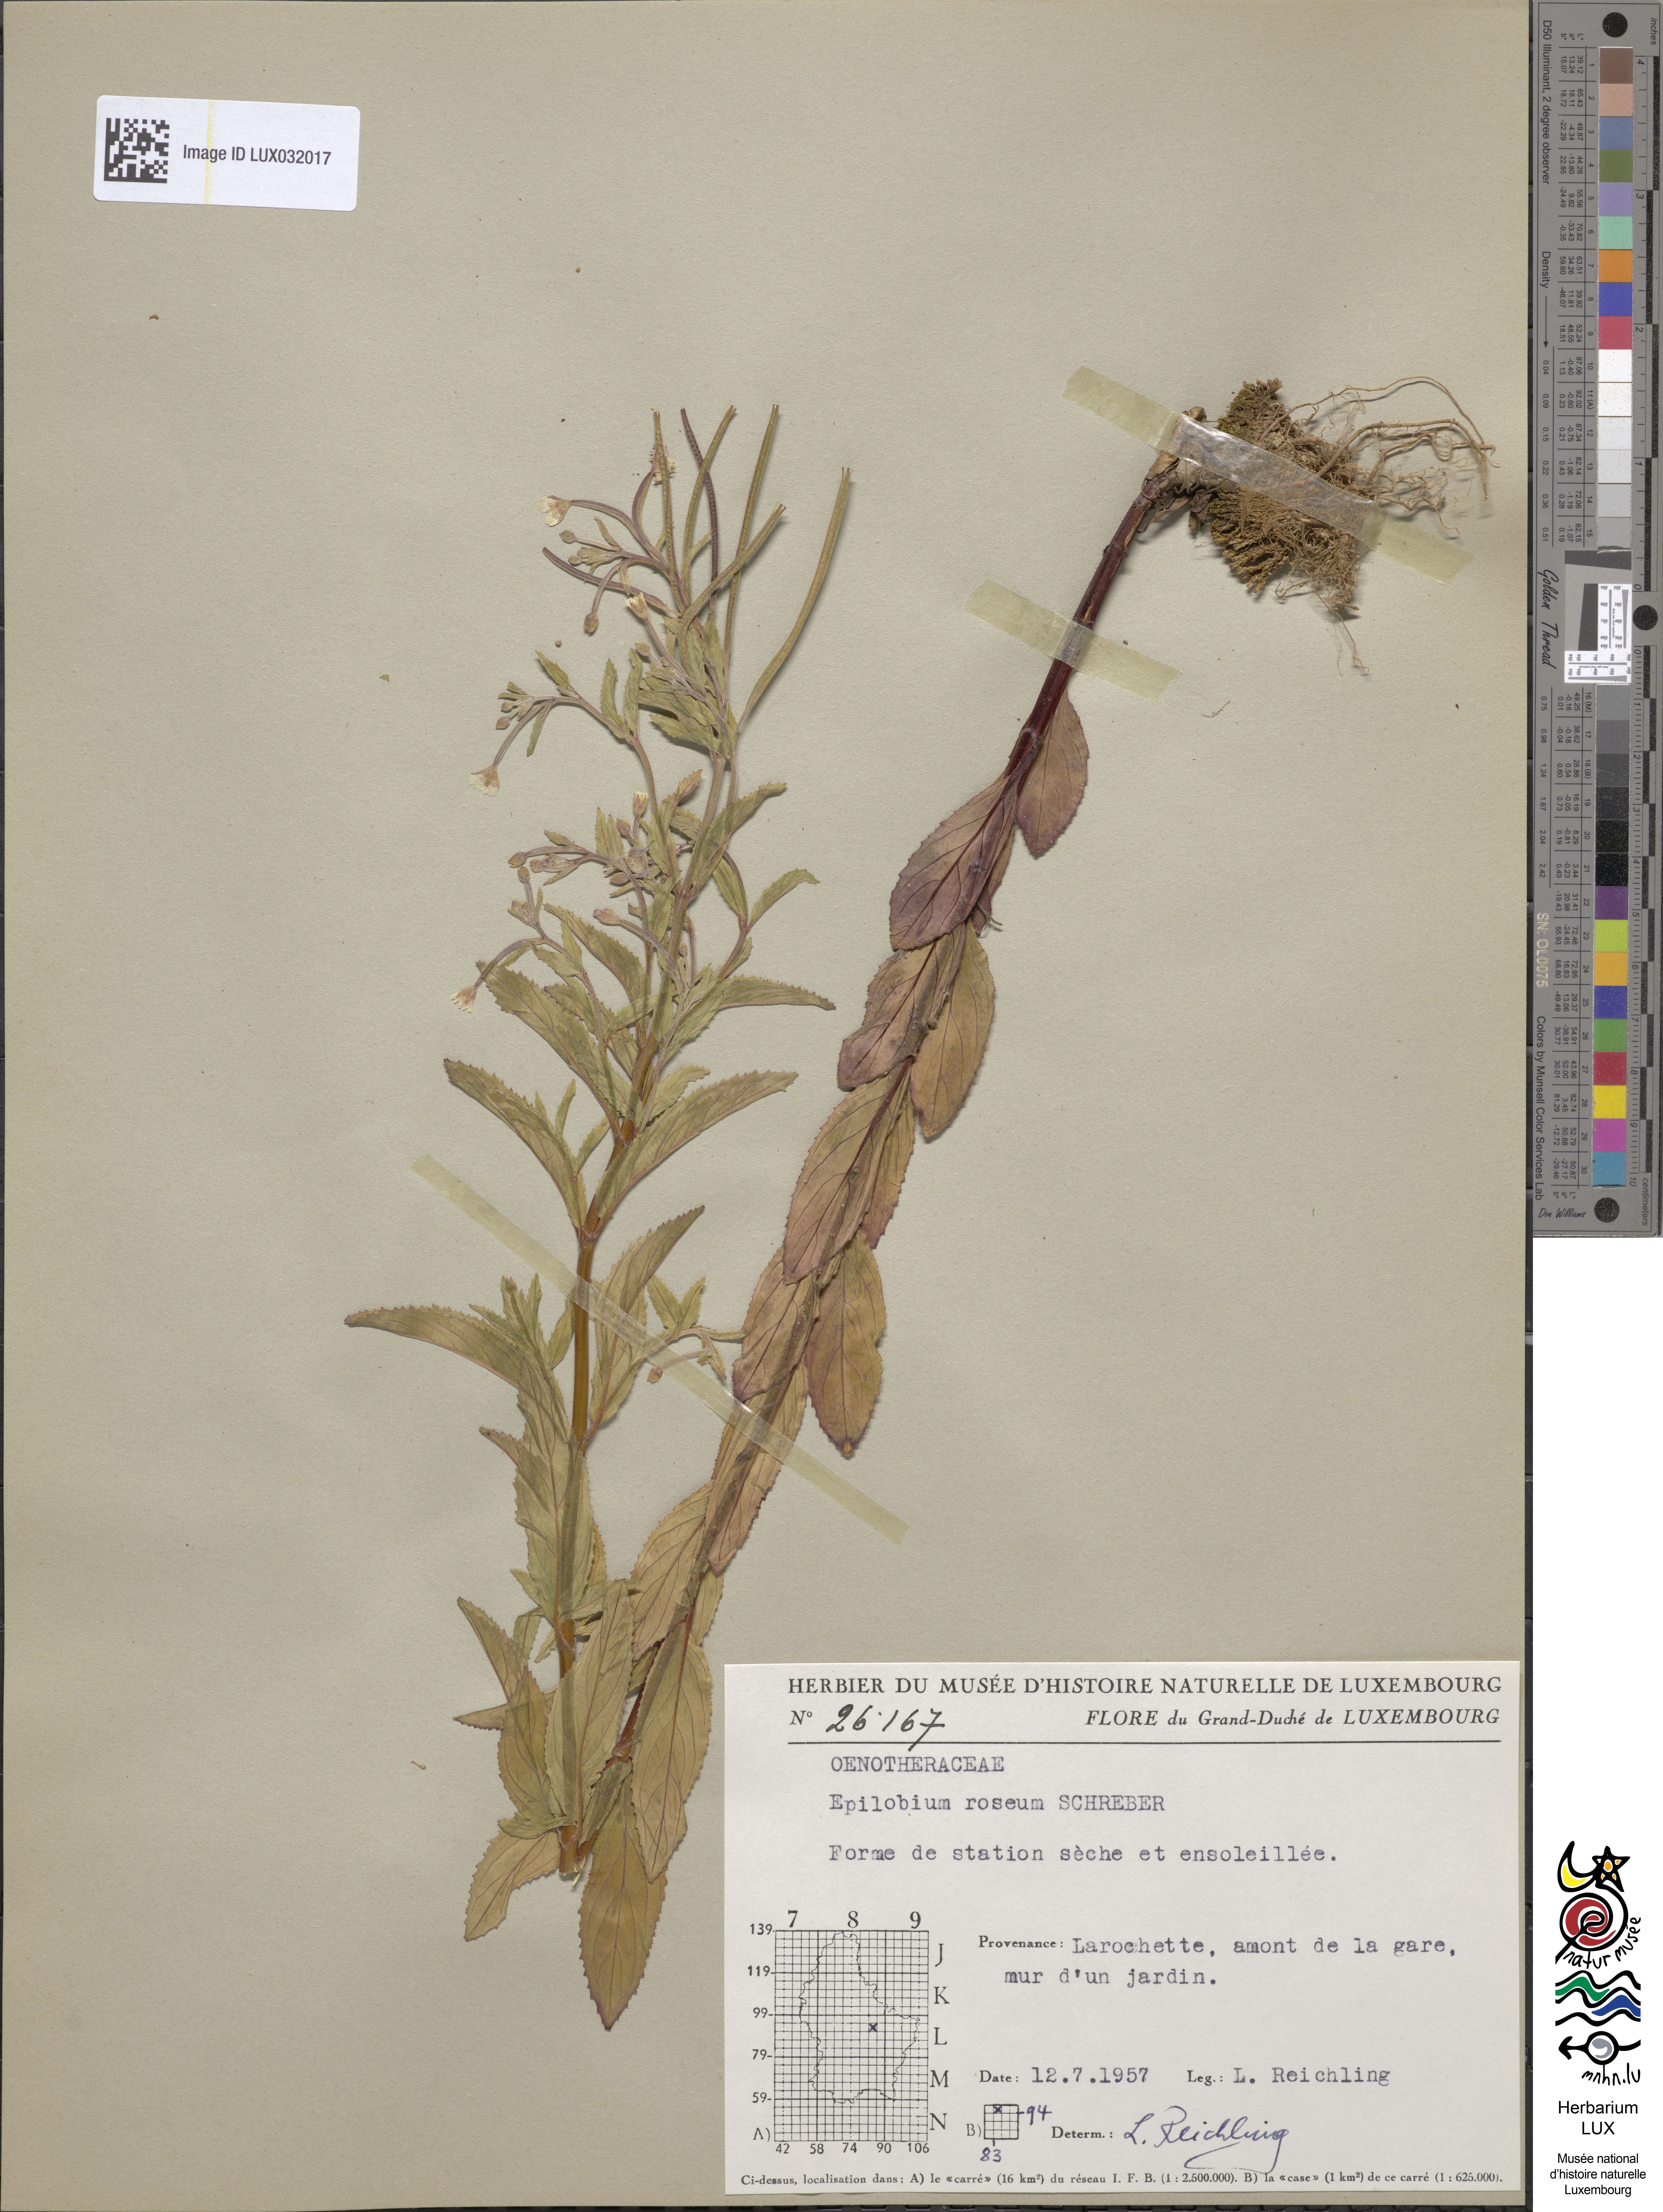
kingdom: Plantae
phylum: Tracheophyta
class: Magnoliopsida
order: Myrtales
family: Onagraceae
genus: Epilobium
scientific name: Epilobium roseum
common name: Pale willowherb
